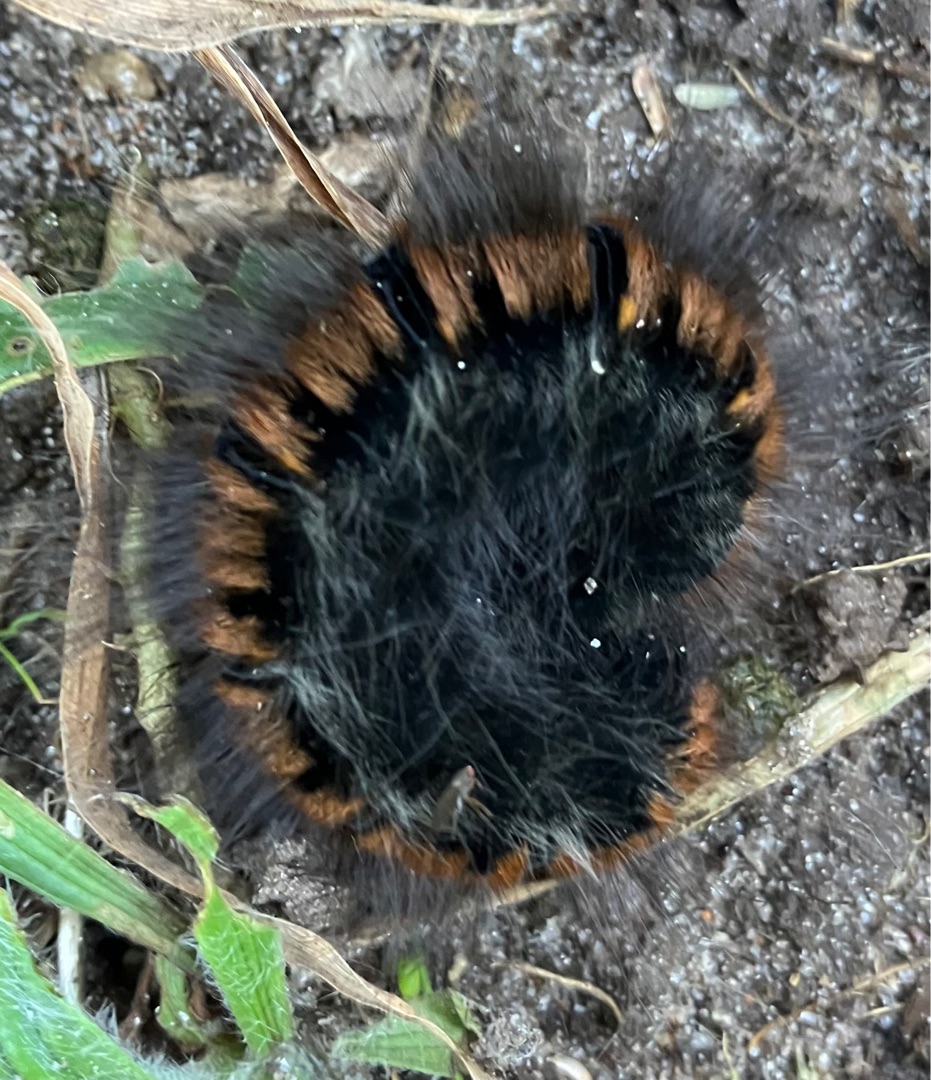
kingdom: Animalia
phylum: Arthropoda
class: Insecta
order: Lepidoptera
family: Lasiocampidae
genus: Macrothylacia
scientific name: Macrothylacia rubi
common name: Brombærspinder
